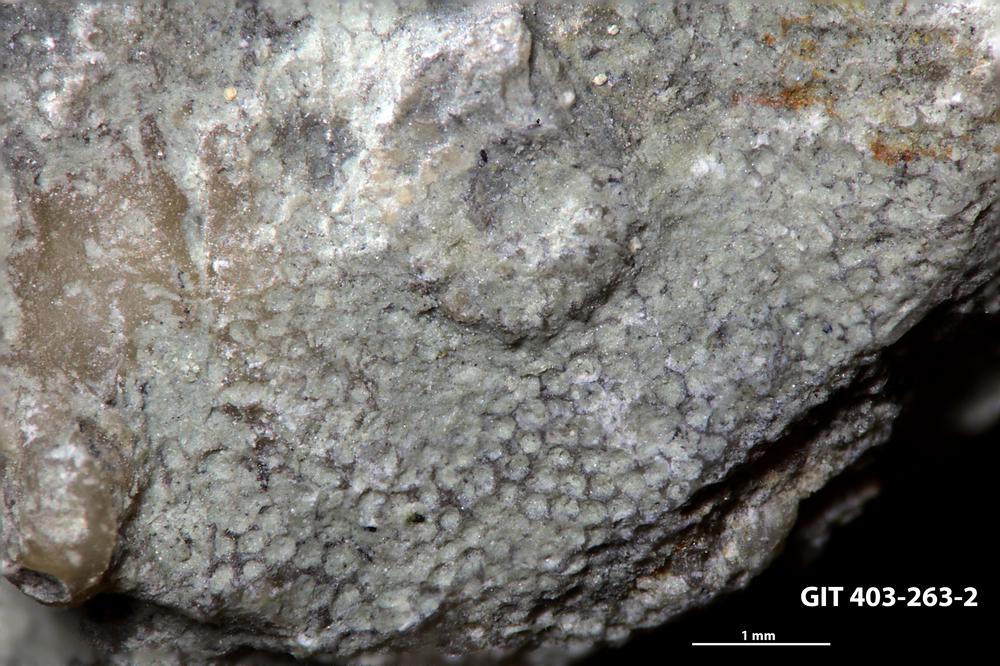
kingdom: Animalia
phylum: Bryozoa
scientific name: Bryozoa
